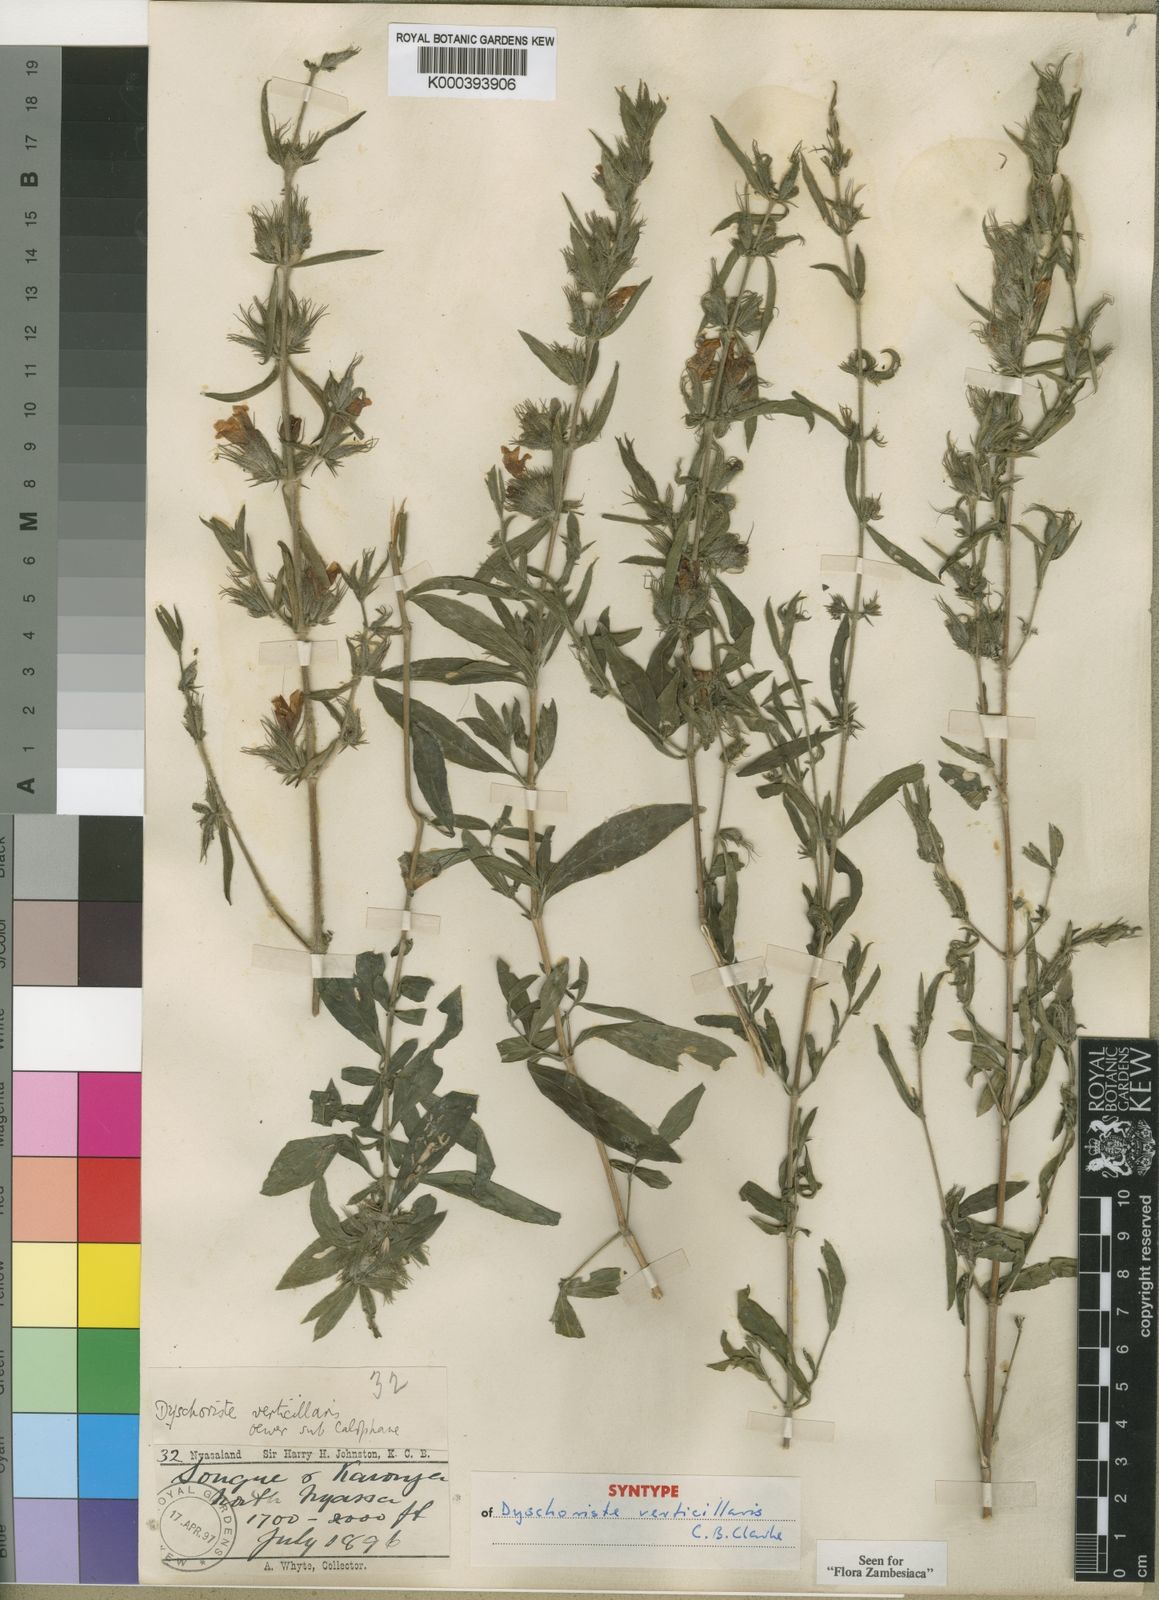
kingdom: Plantae
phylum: Tracheophyta
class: Magnoliopsida
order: Lamiales
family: Acanthaceae
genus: Dyschoriste
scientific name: Dyschoriste trichocalyx
